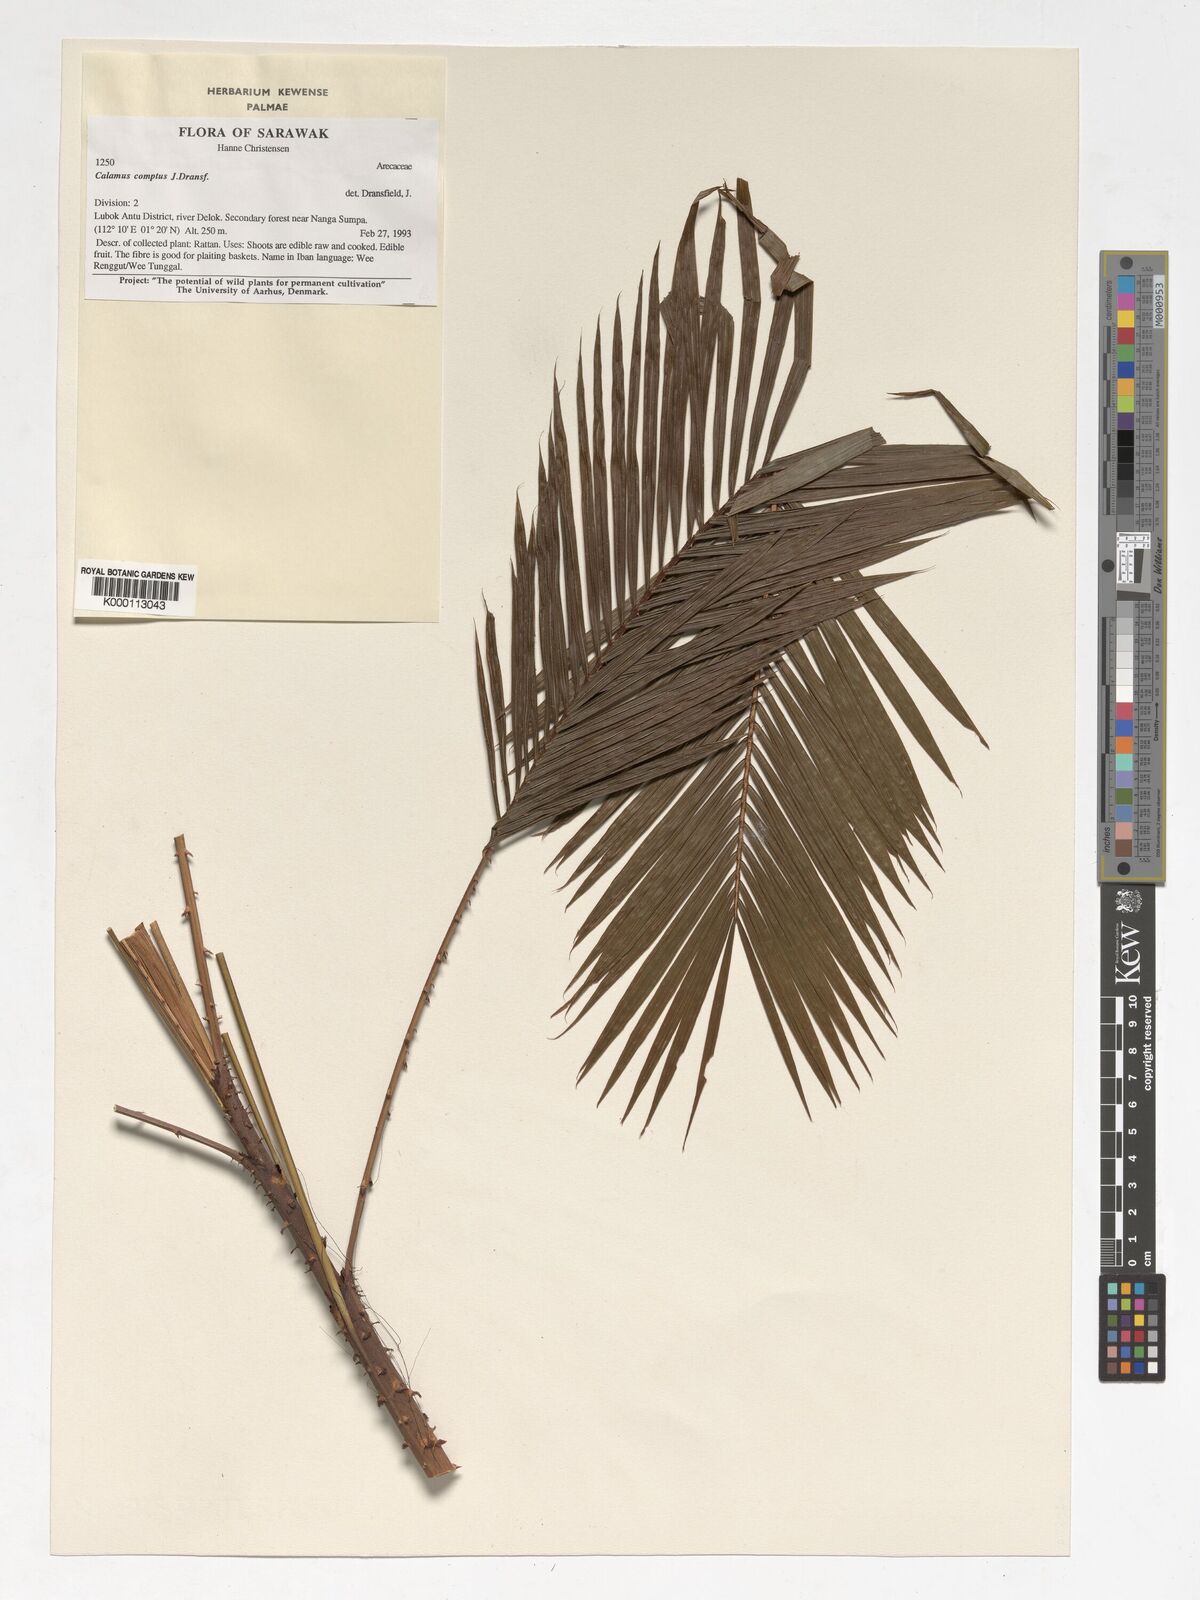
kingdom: Plantae
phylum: Tracheophyta
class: Liliopsida
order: Arecales
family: Arecaceae
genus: Calamus
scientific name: Calamus comptus
